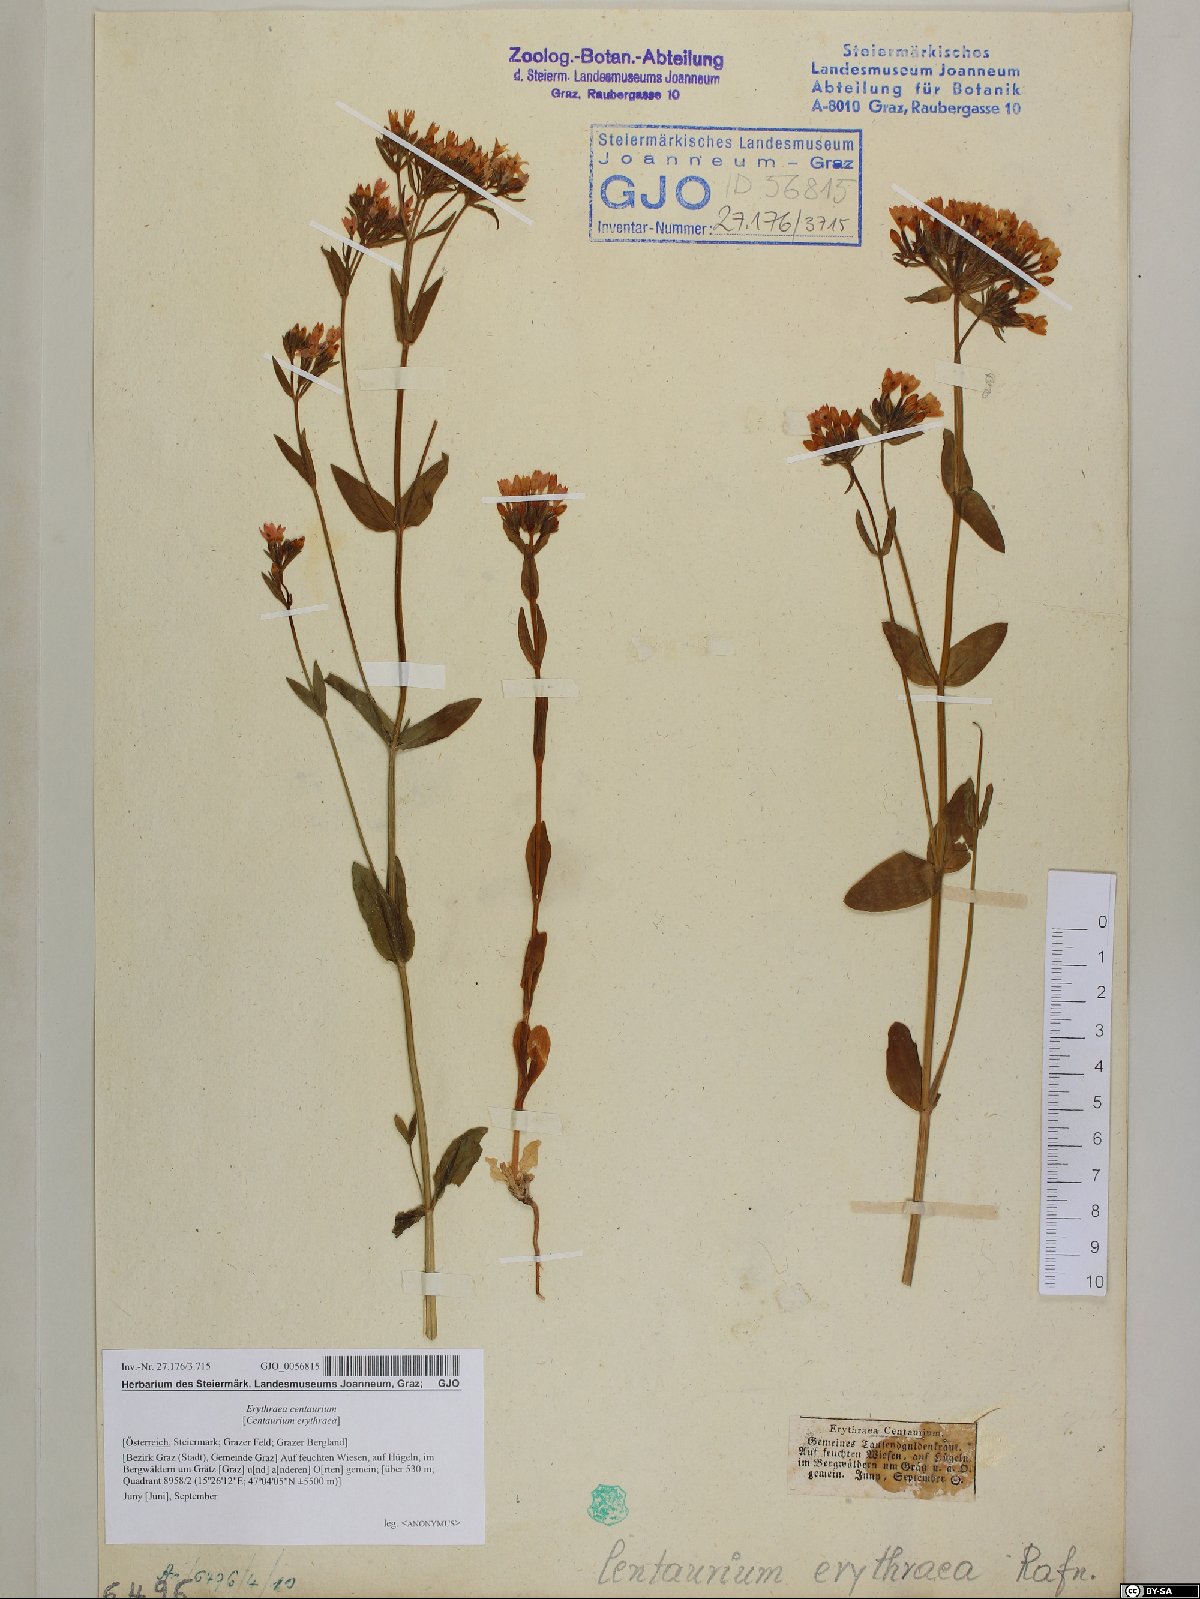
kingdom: Plantae
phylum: Tracheophyta
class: Magnoliopsida
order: Gentianales
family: Gentianaceae
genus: Centaurium
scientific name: Centaurium erythraea
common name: Common centaury
